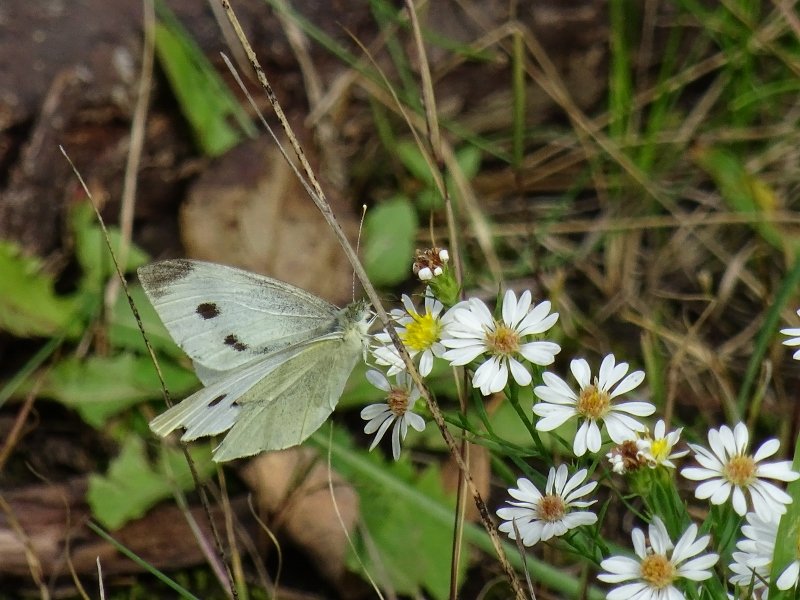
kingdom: Animalia
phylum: Arthropoda
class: Insecta
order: Lepidoptera
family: Pieridae
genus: Pieris
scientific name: Pieris rapae
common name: Cabbage White
